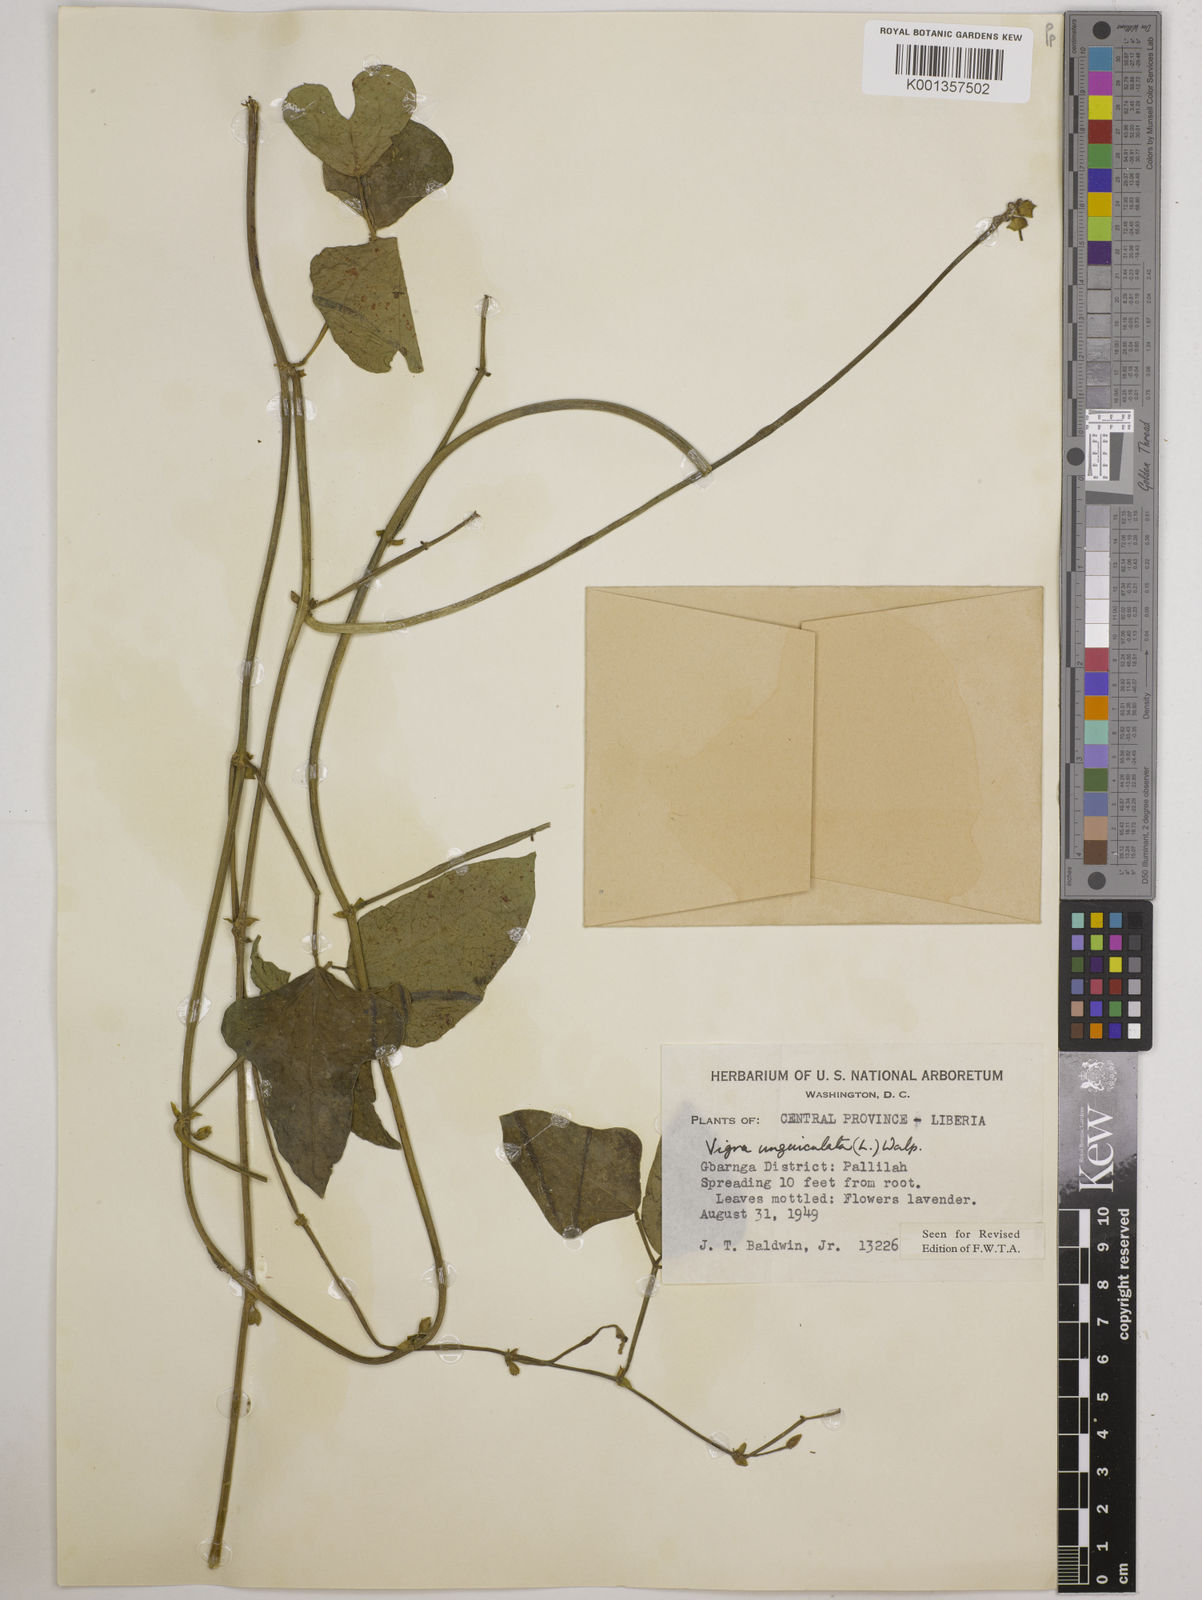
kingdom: Plantae
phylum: Tracheophyta
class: Magnoliopsida
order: Fabales
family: Fabaceae
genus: Vigna
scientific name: Vigna
